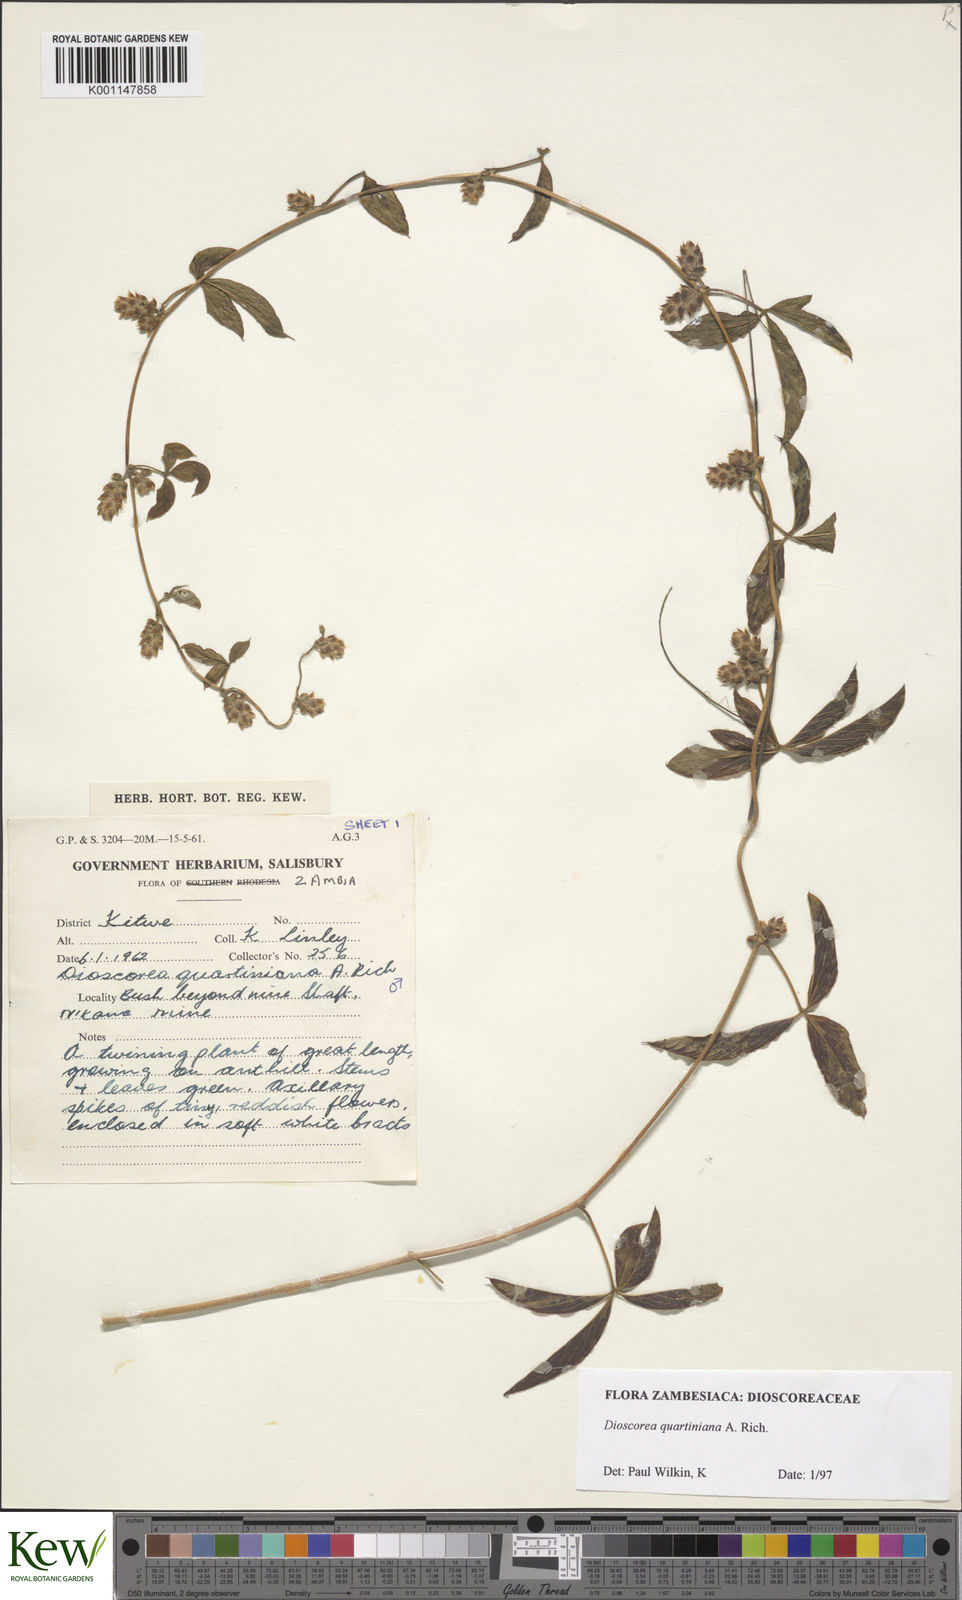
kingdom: Plantae
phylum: Tracheophyta
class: Liliopsida
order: Dioscoreales
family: Dioscoreaceae
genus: Dioscorea
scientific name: Dioscorea quartiniana
